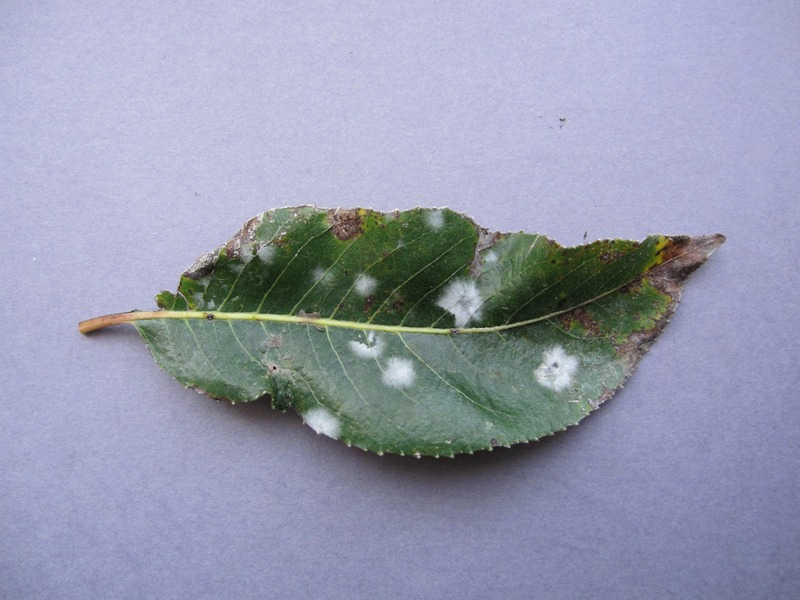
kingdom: Fungi
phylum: Ascomycota
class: Leotiomycetes
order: Helotiales
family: Erysiphaceae
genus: Erysiphe
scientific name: Erysiphe salicis
